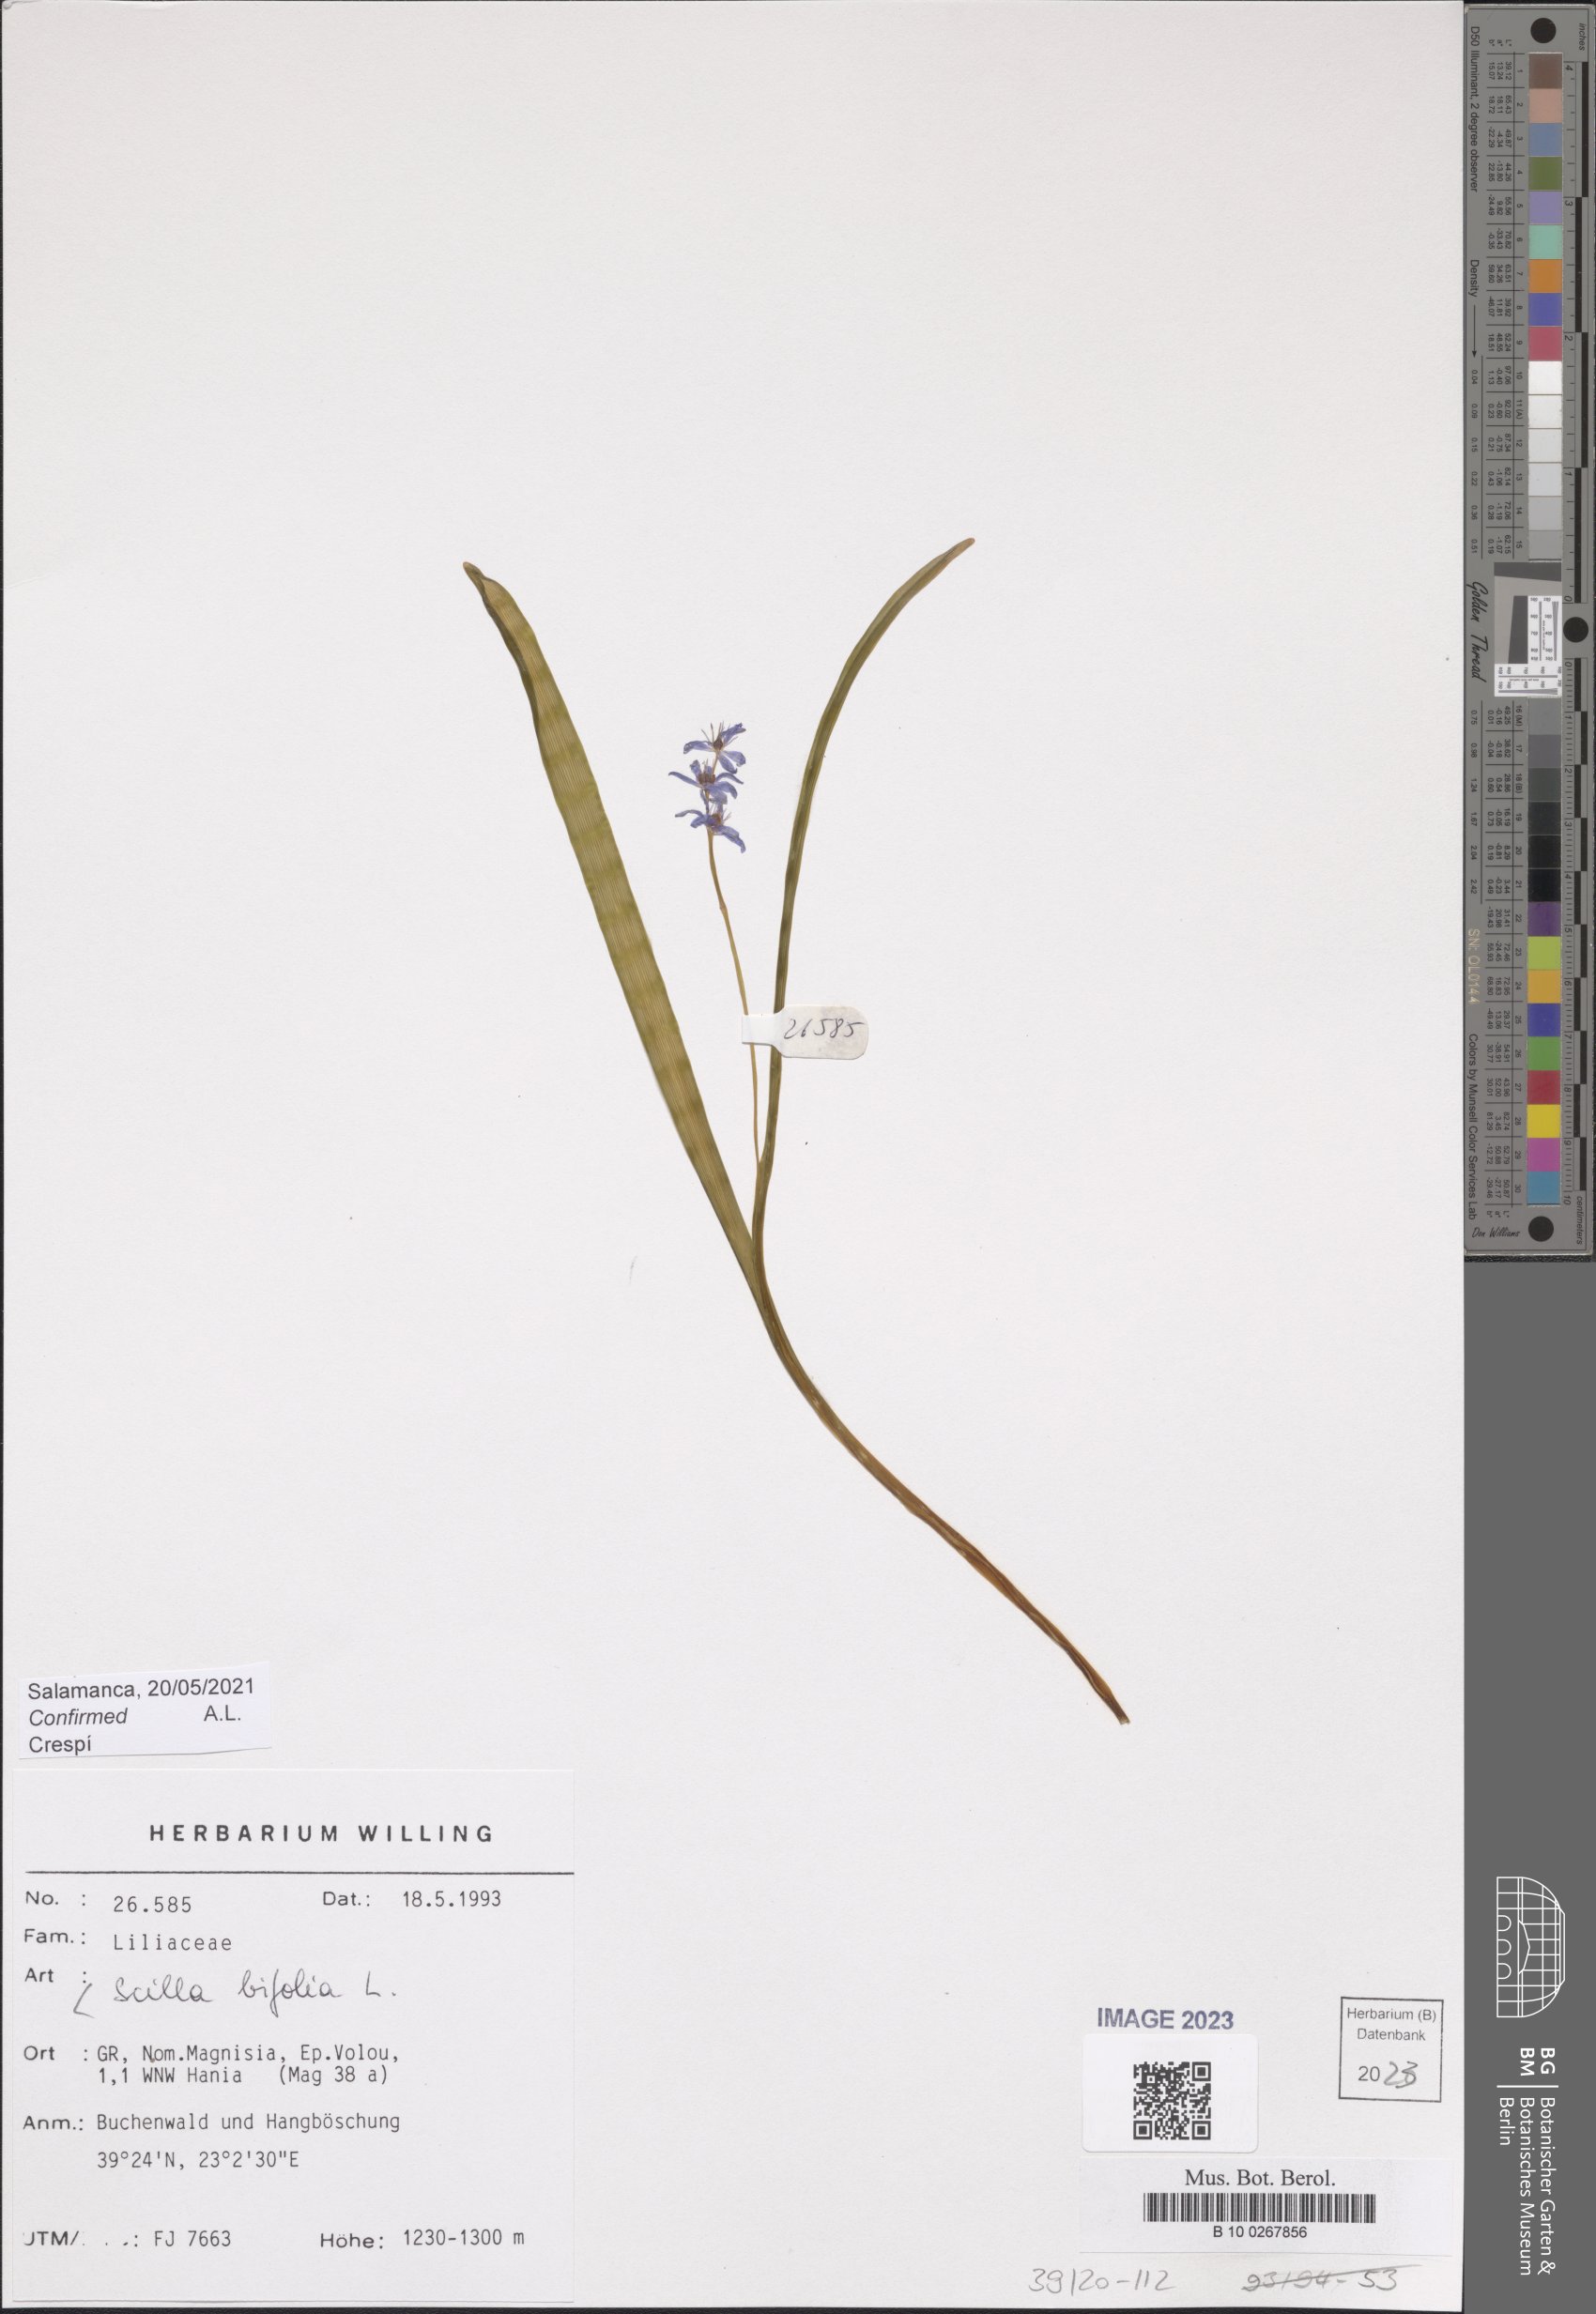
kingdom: Plantae
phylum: Tracheophyta
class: Liliopsida
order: Asparagales
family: Asparagaceae
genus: Scilla
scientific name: Scilla bifolia
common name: Alpine squill
